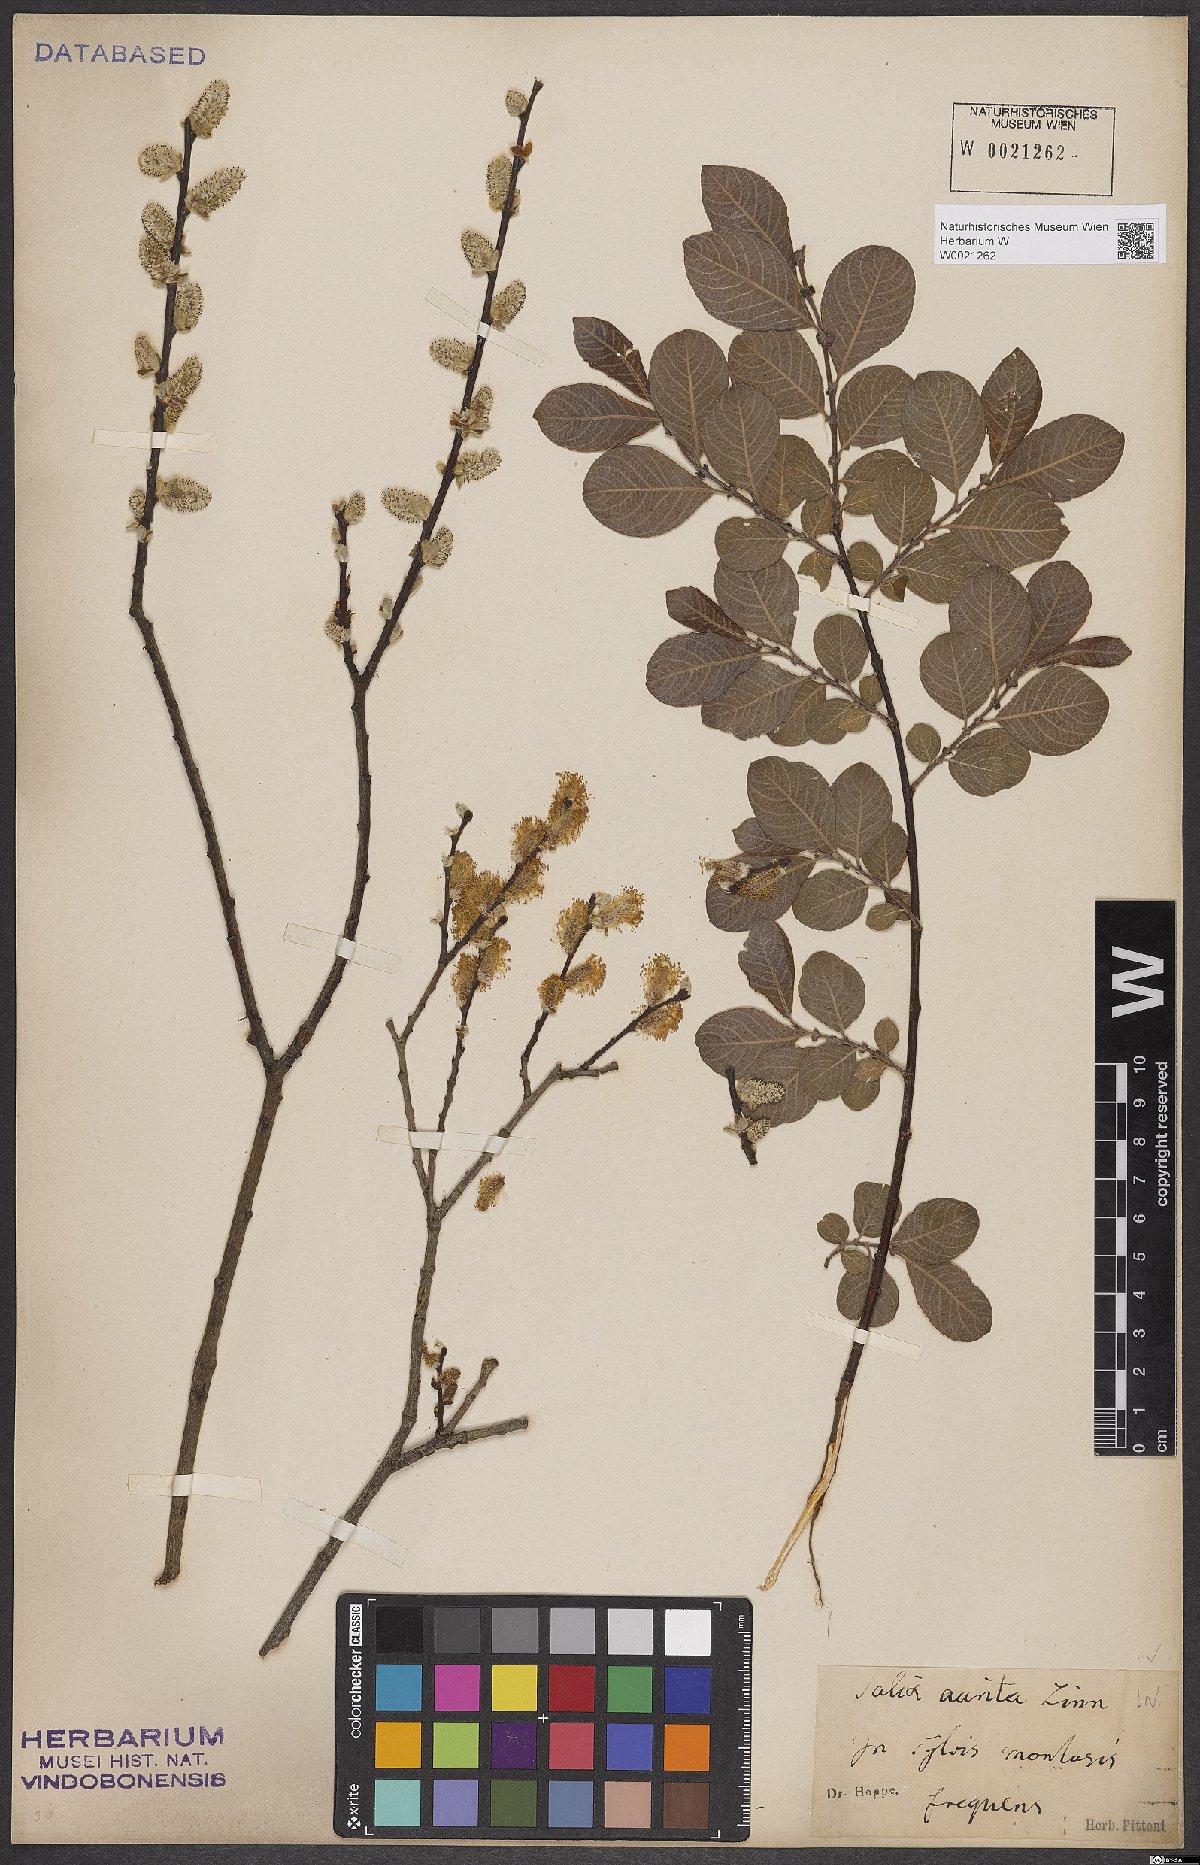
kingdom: Plantae
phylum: Tracheophyta
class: Magnoliopsida
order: Malpighiales
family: Salicaceae
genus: Salix
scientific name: Salix aurita
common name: Eared willow
